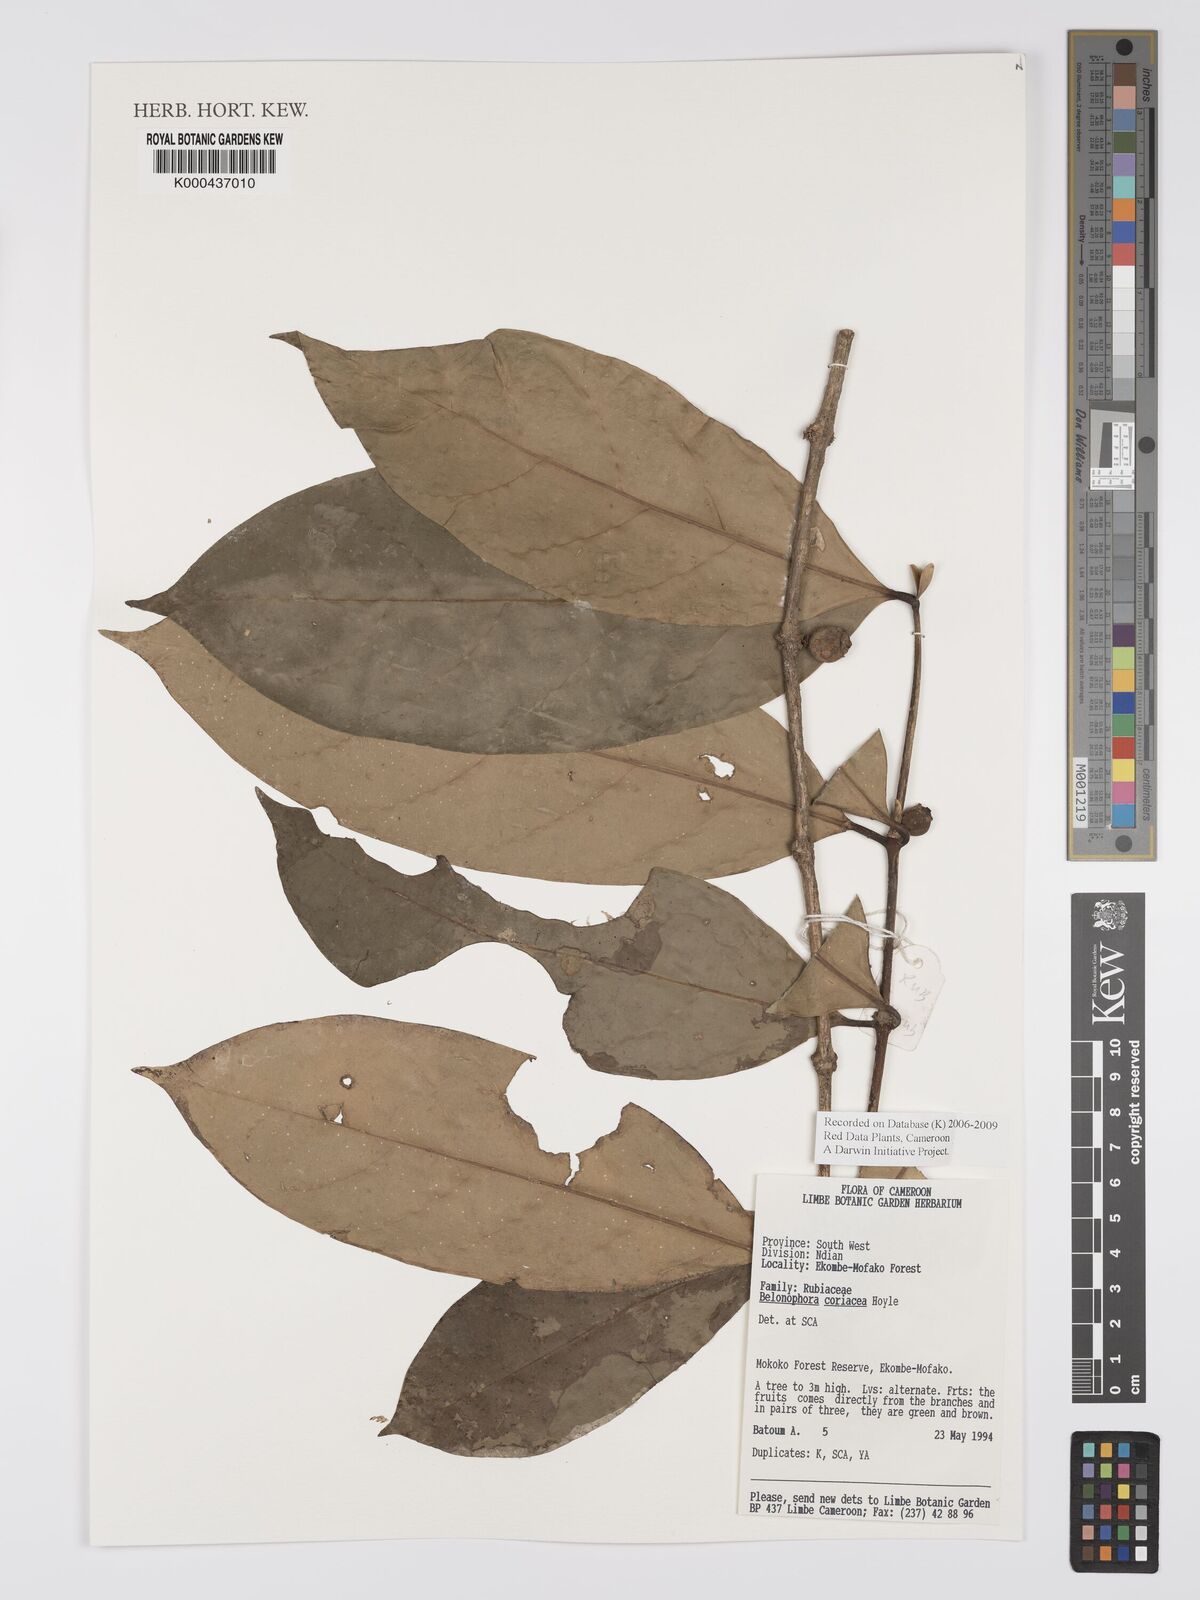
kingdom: Plantae
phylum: Tracheophyta
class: Magnoliopsida
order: Gentianales
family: Rubiaceae
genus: Belonophora
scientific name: Belonophora coriacea
